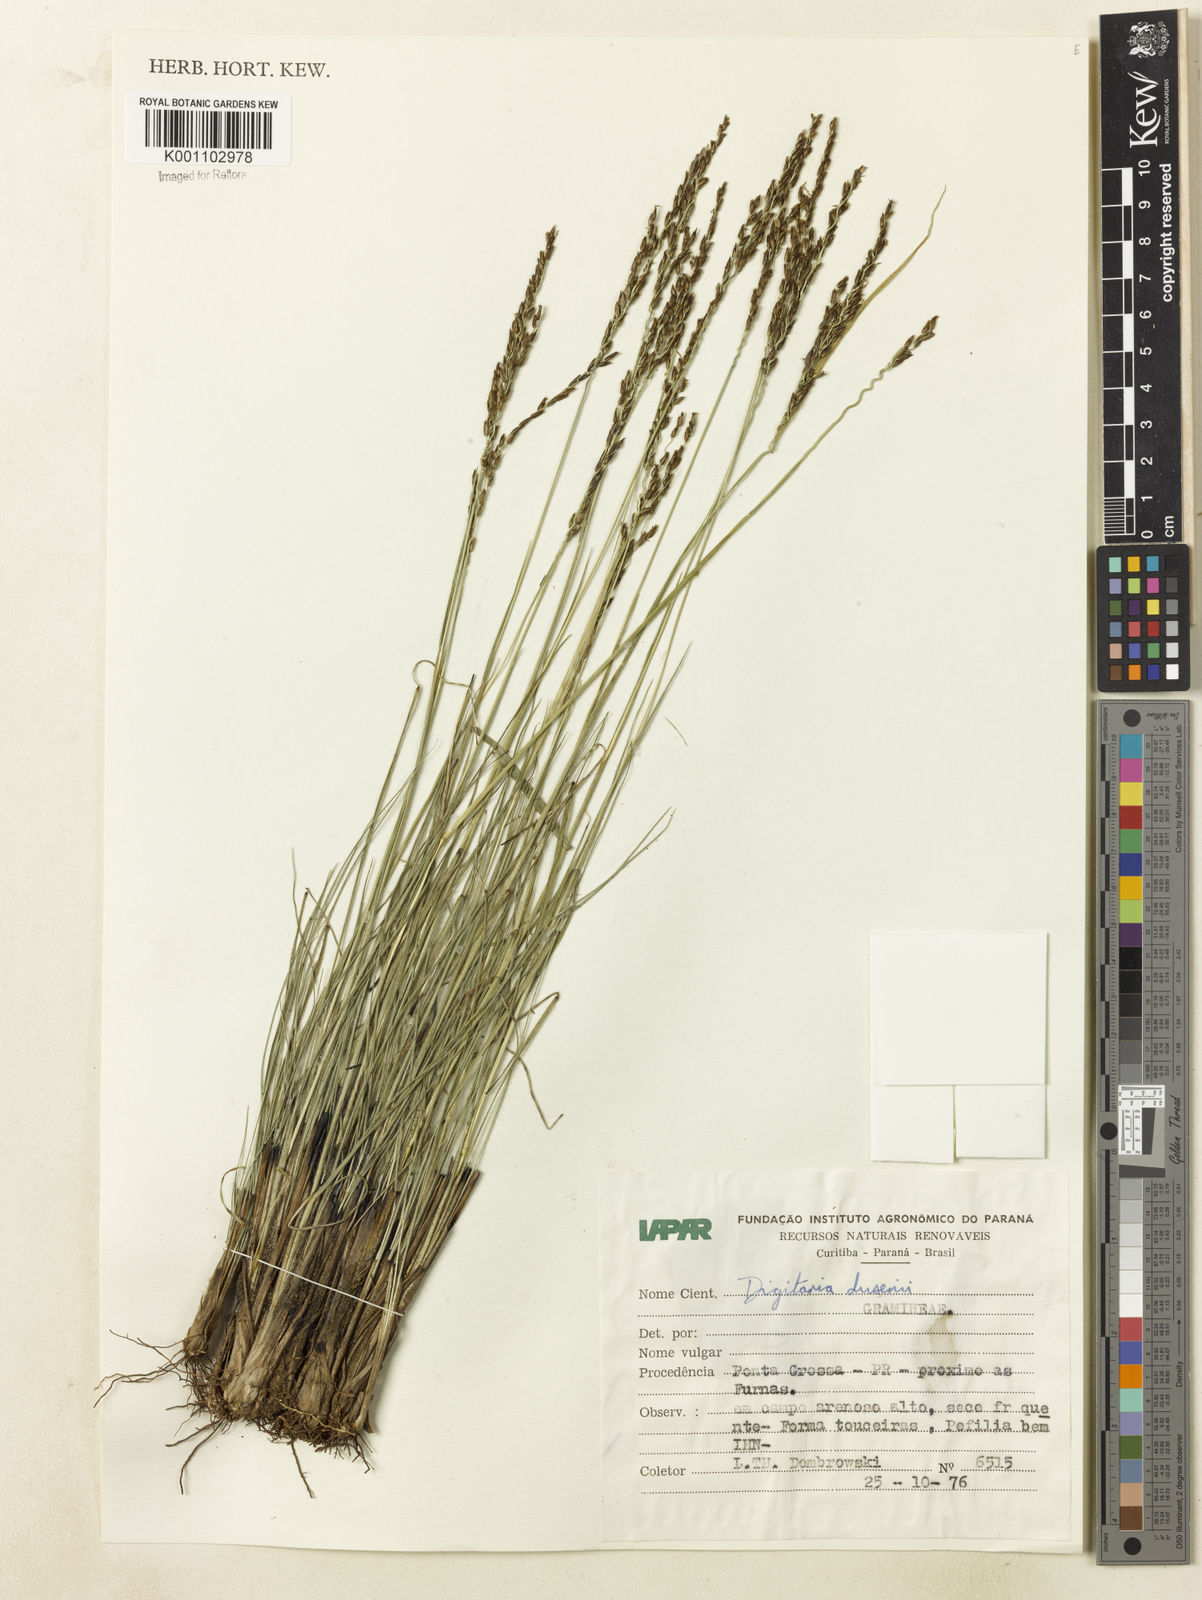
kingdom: Plantae
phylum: Tracheophyta
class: Liliopsida
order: Poales
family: Poaceae
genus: Digitaria
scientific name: Digitaria purpurea
